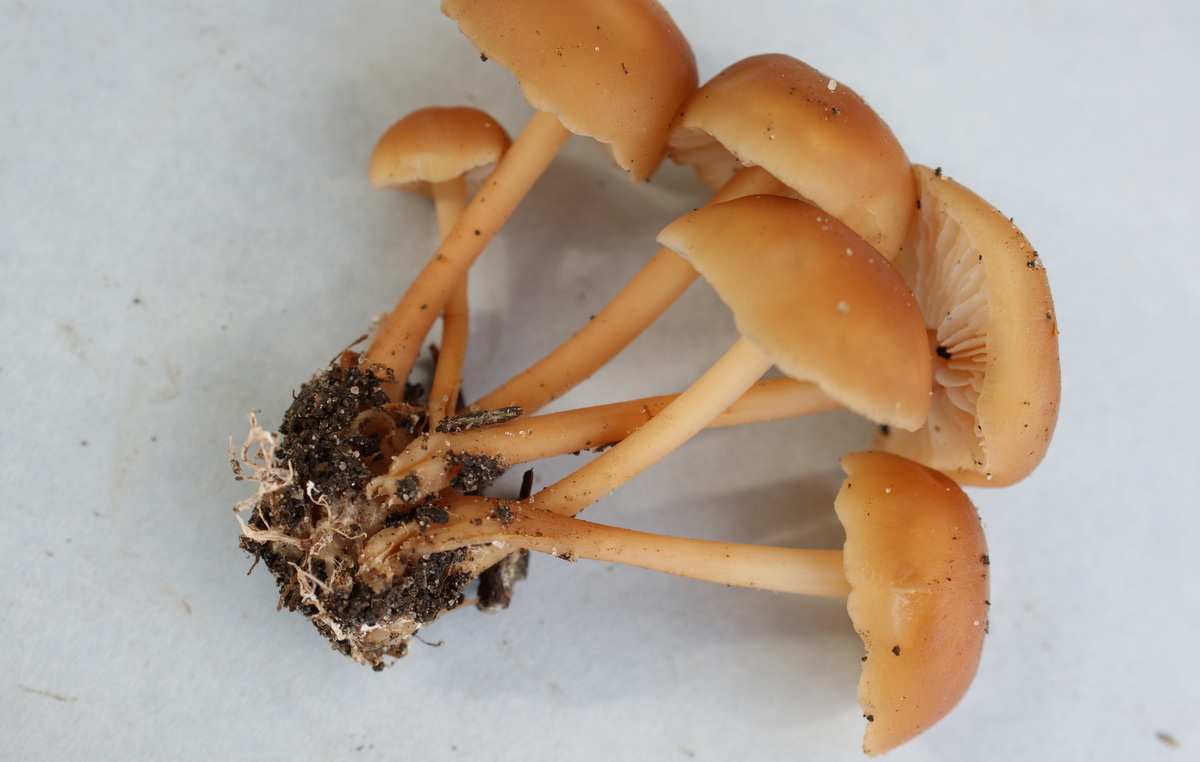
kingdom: Fungi
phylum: Basidiomycota
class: Agaricomycetes
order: Agaricales
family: Omphalotaceae
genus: Gymnopus
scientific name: Gymnopus ocior
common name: mørk fladhat
